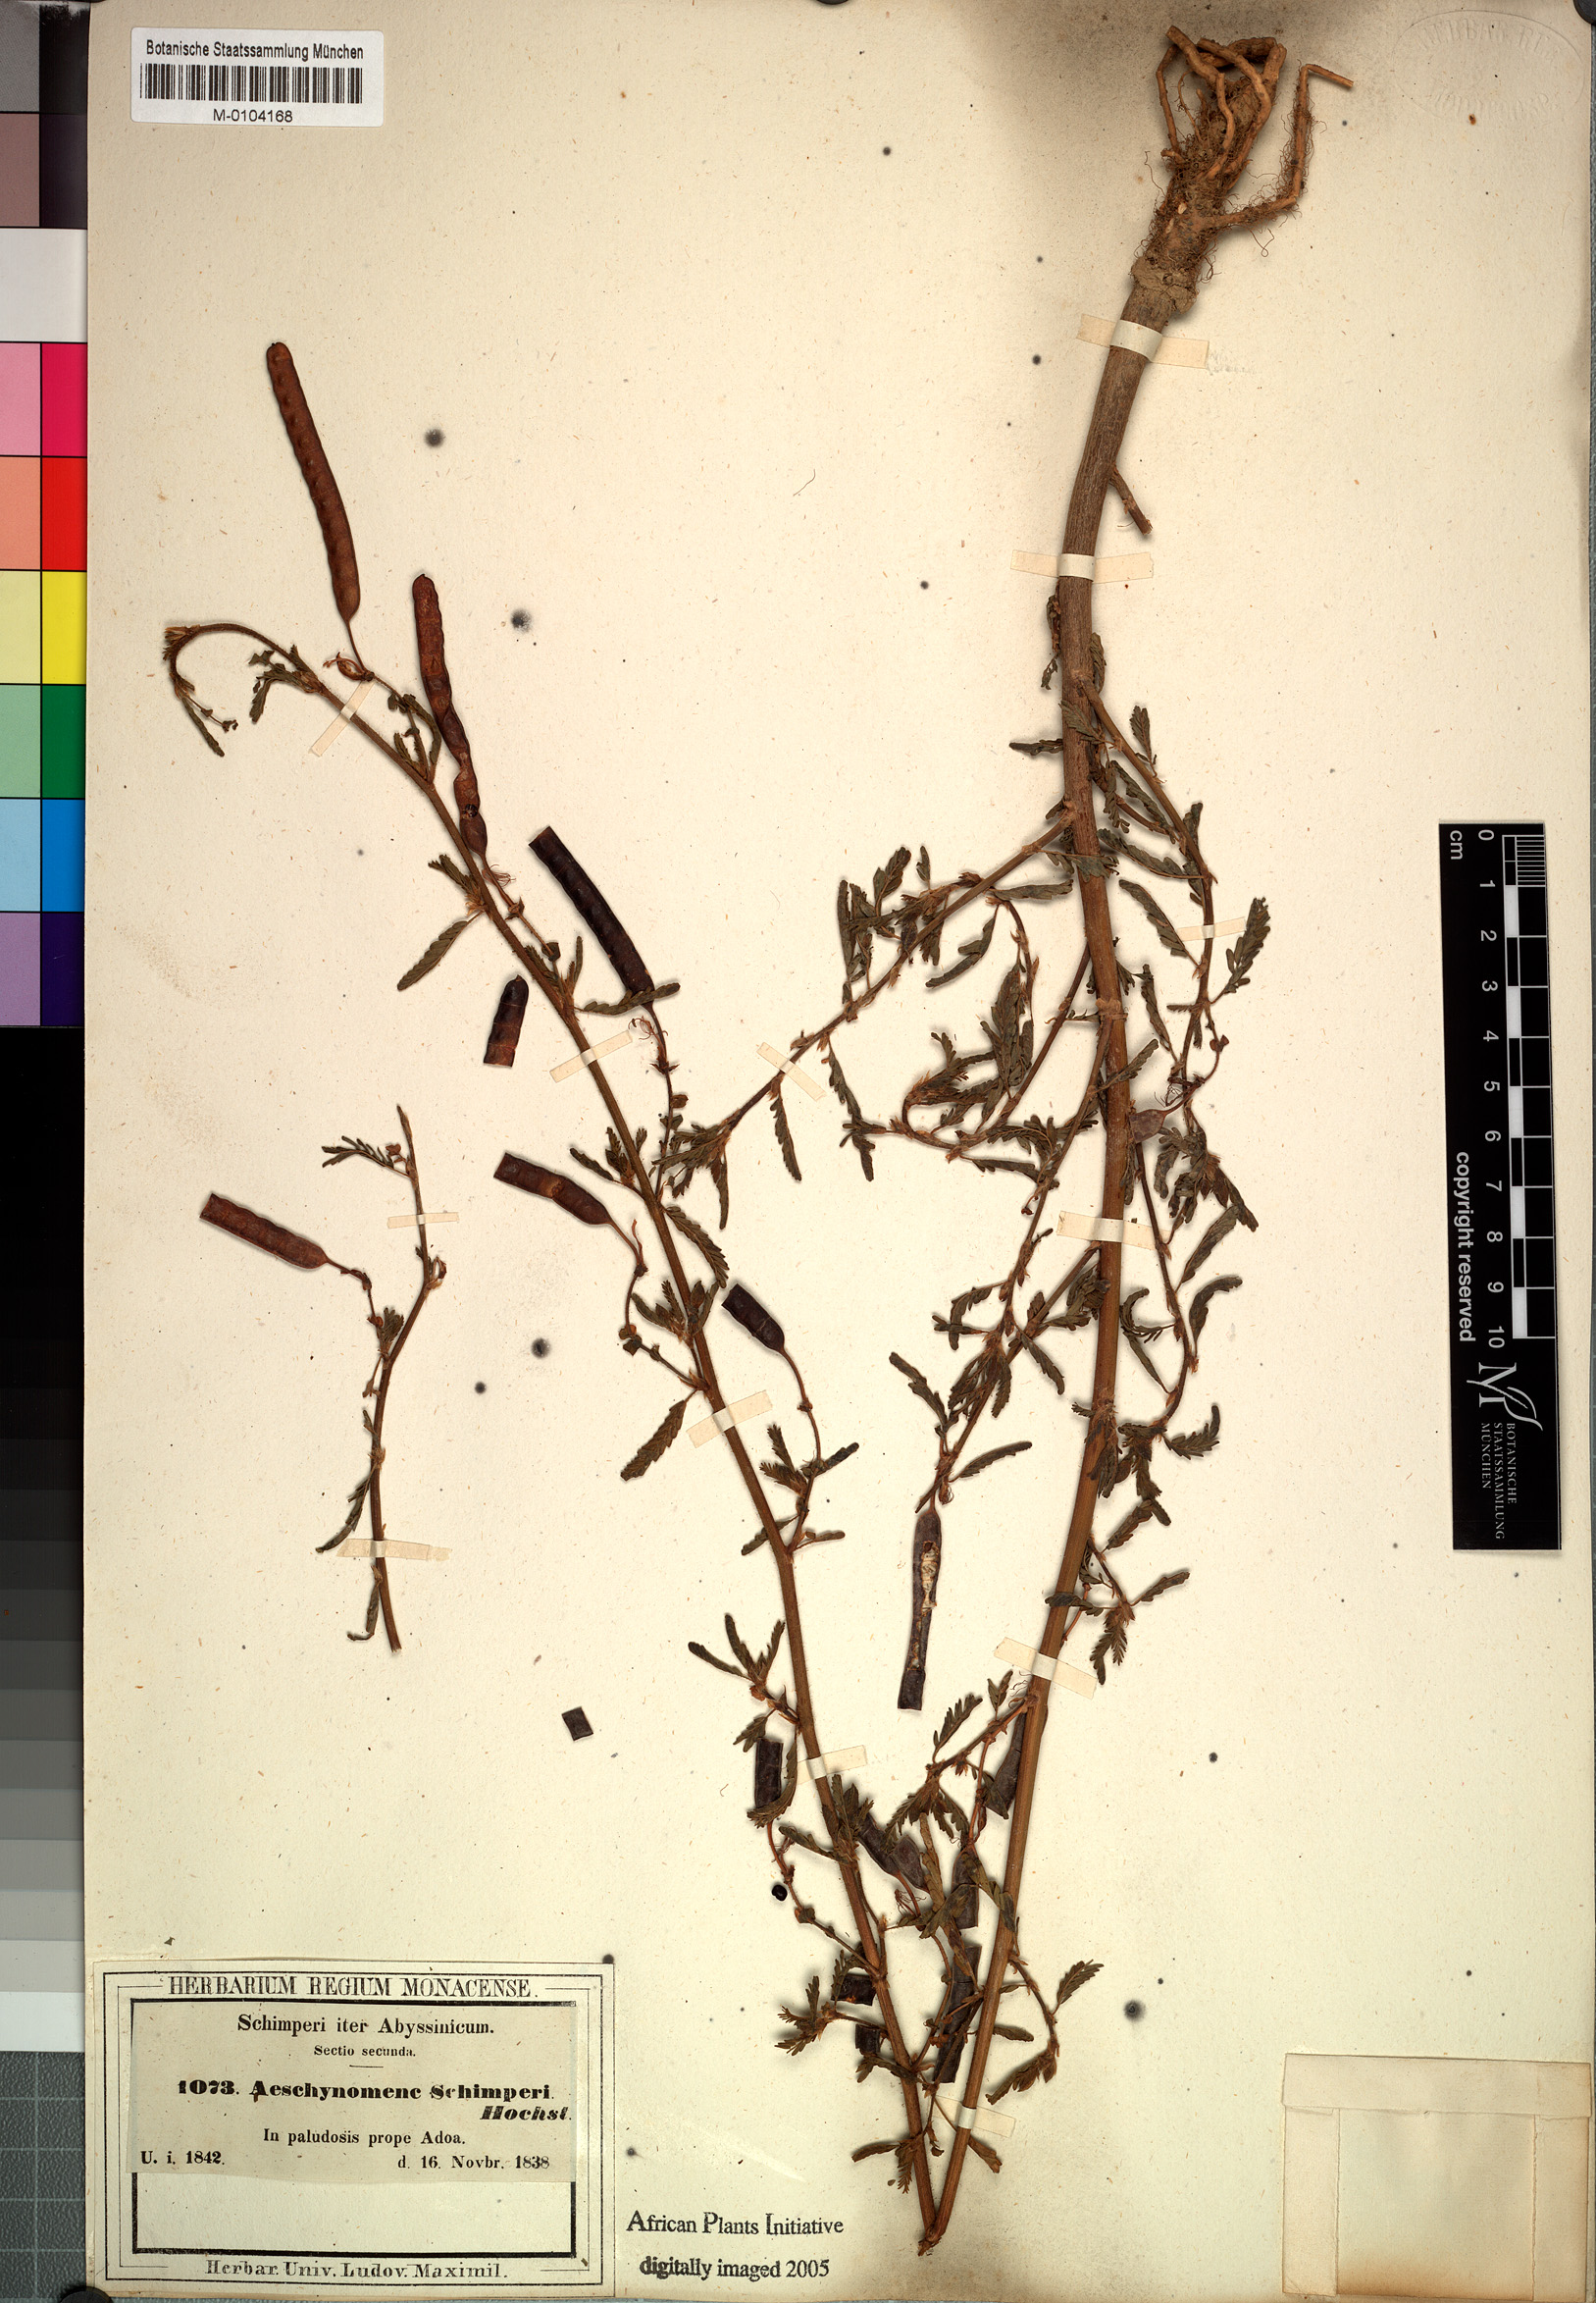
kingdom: Plantae
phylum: Tracheophyta
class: Magnoliopsida
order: Fabales
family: Fabaceae
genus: Aeschynomene
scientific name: Aeschynomene schimperi
